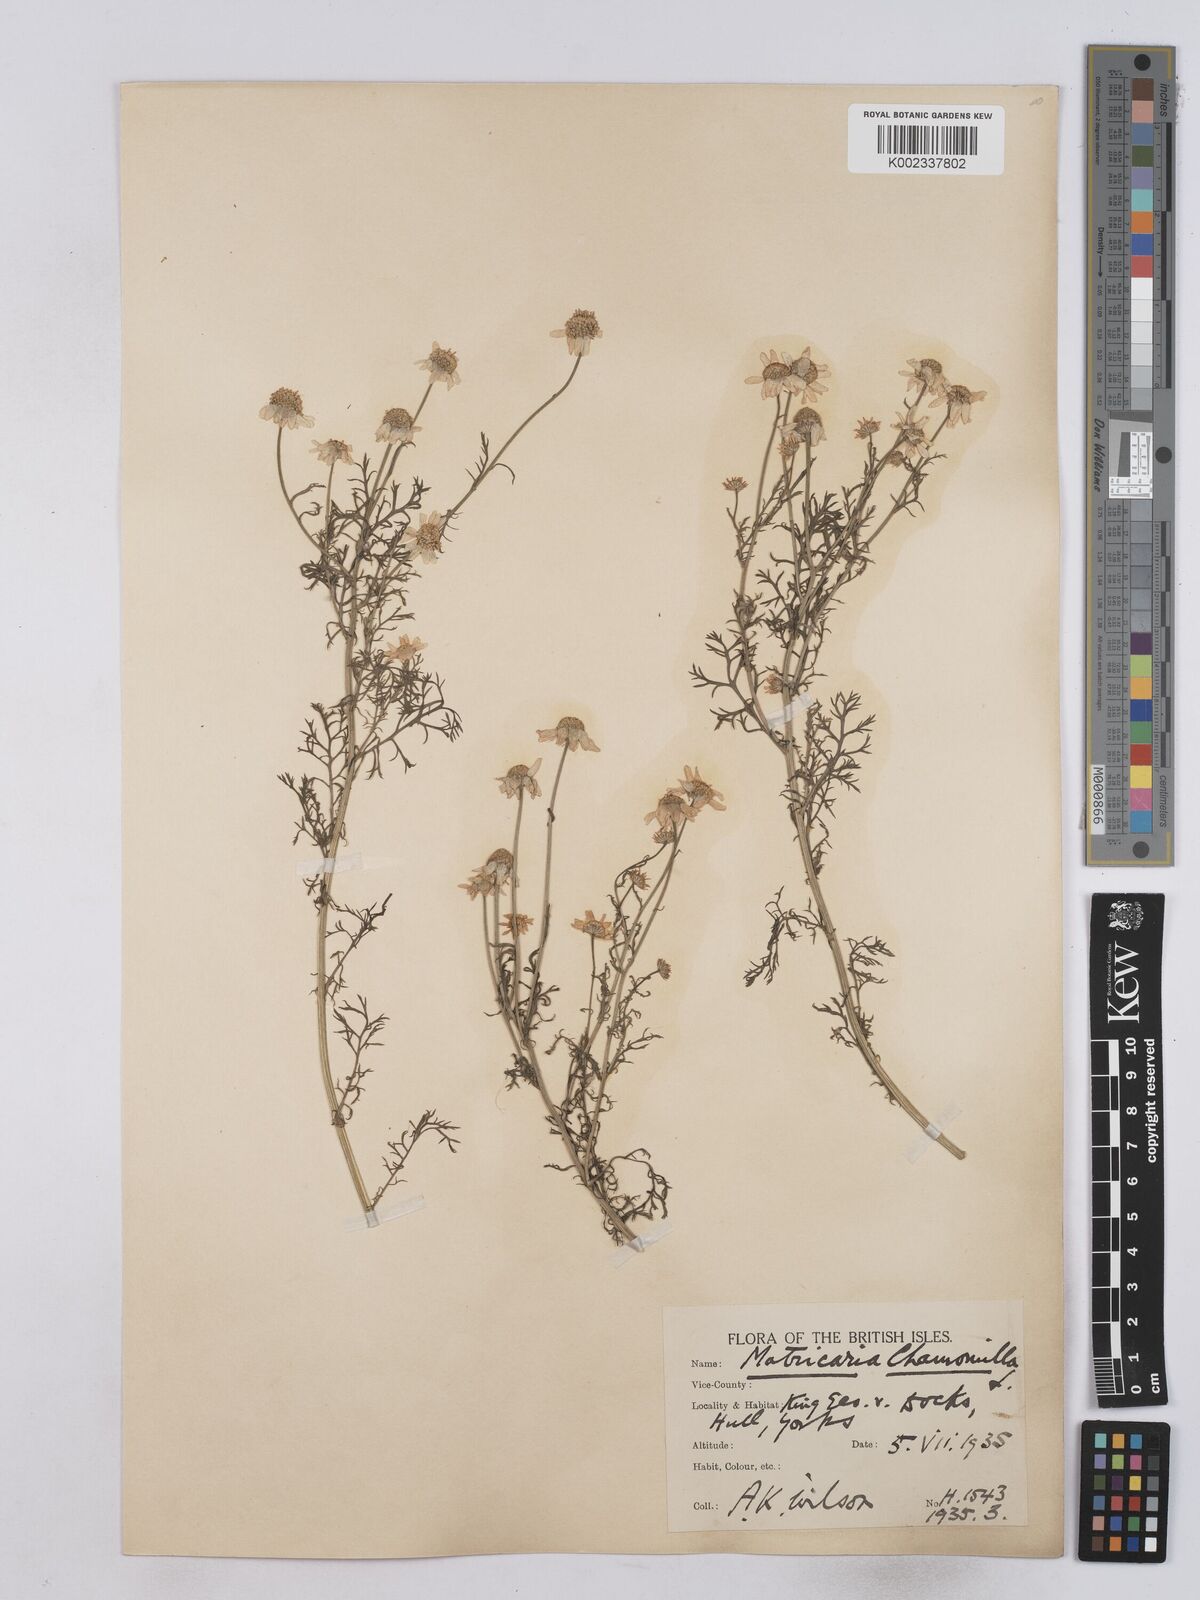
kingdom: Plantae
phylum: Tracheophyta
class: Magnoliopsida
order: Asterales
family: Asteraceae
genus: Matricaria
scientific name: Matricaria chamomilla
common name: Scented mayweed
